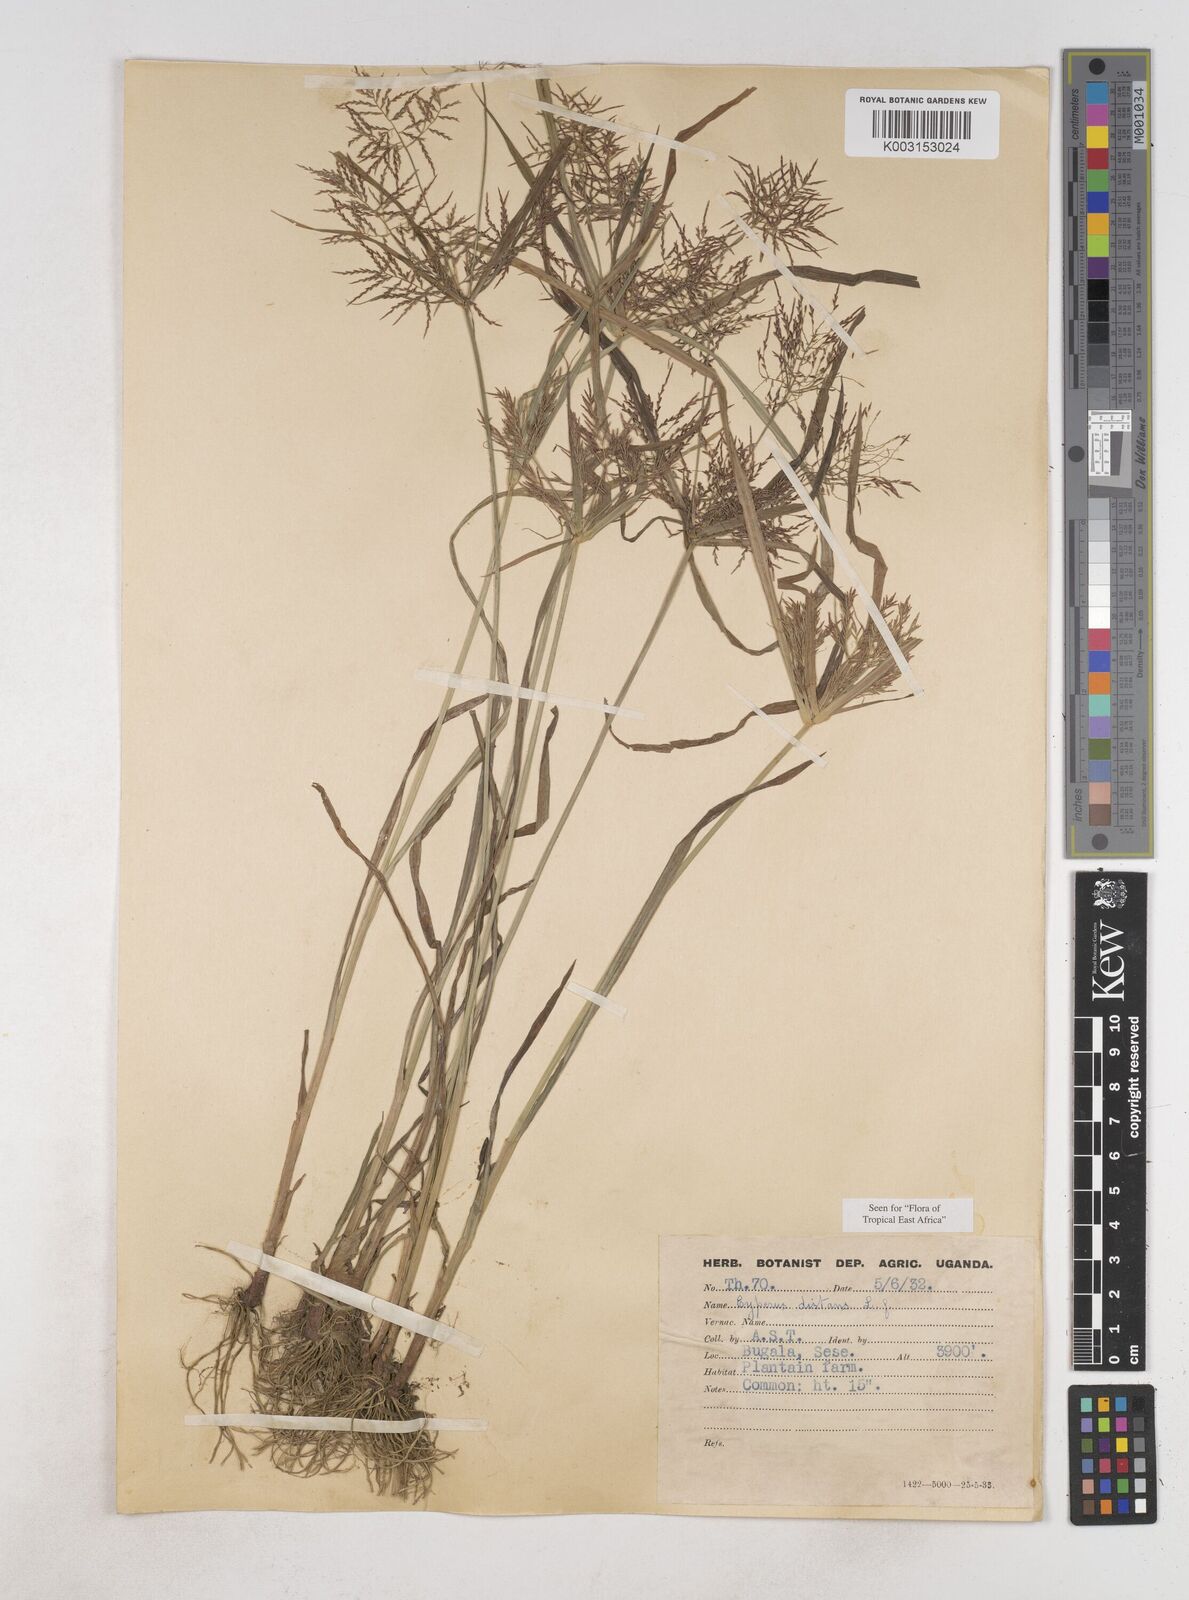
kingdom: Plantae
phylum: Tracheophyta
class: Liliopsida
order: Poales
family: Cyperaceae
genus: Cyperus
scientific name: Cyperus distans
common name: Slender cyperus
